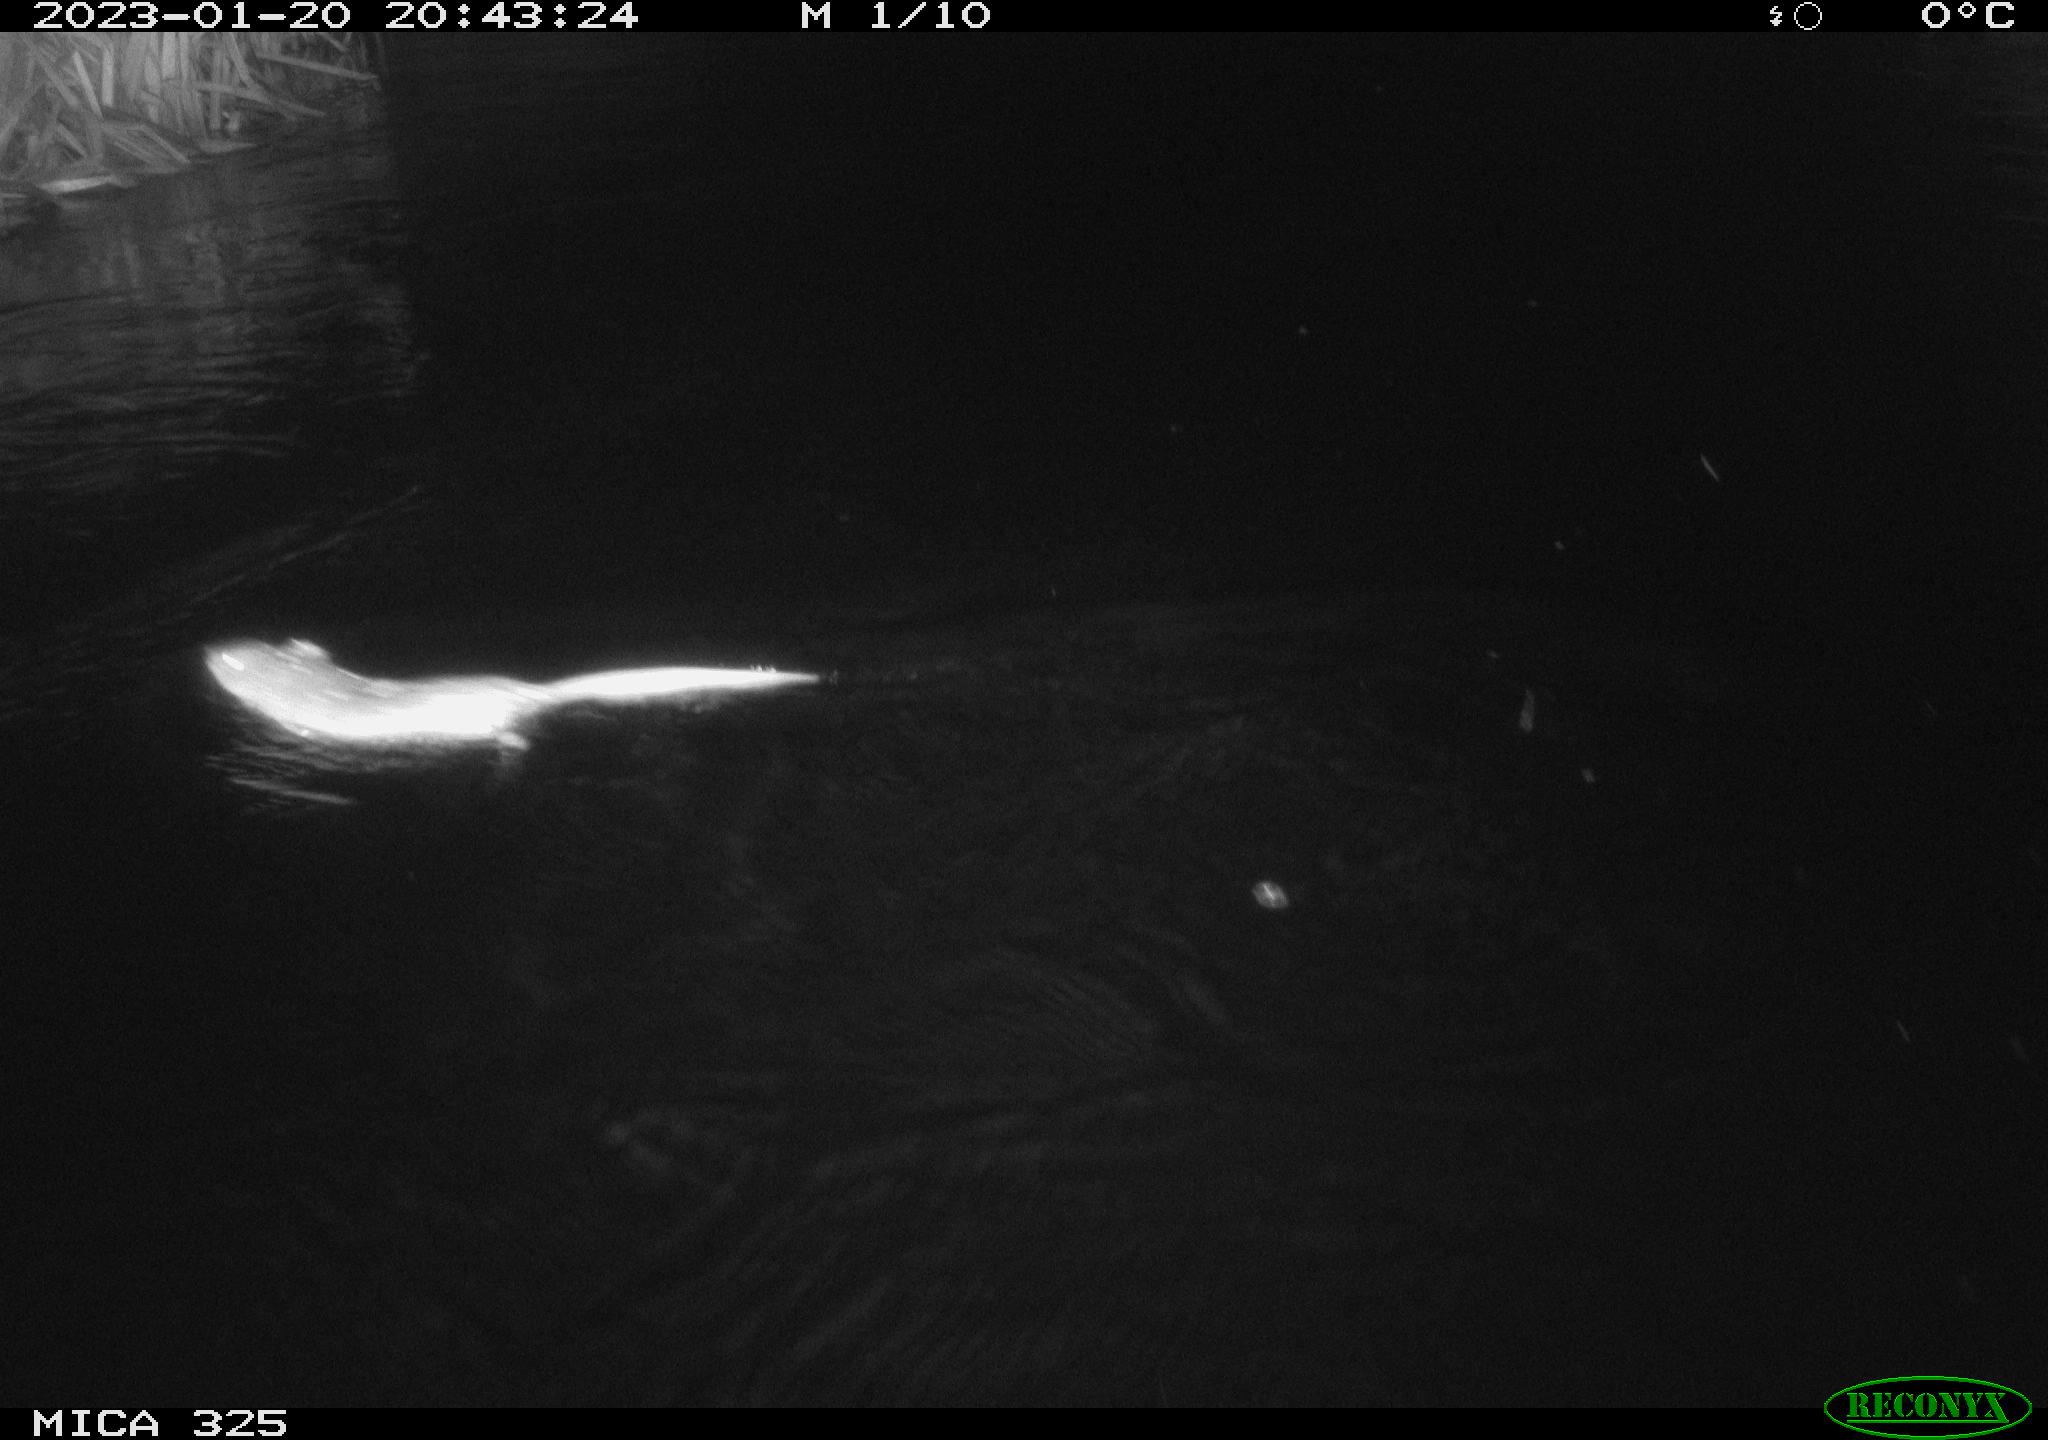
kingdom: Animalia
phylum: Chordata
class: Mammalia
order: Rodentia
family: Cricetidae
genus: Ondatra
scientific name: Ondatra zibethicus
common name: Muskrat
